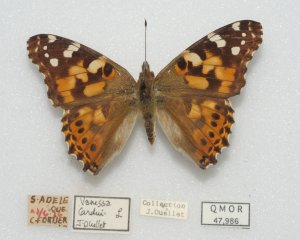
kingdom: Animalia
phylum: Arthropoda
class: Insecta
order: Lepidoptera
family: Nymphalidae
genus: Vanessa
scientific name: Vanessa cardui
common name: Painted Lady
